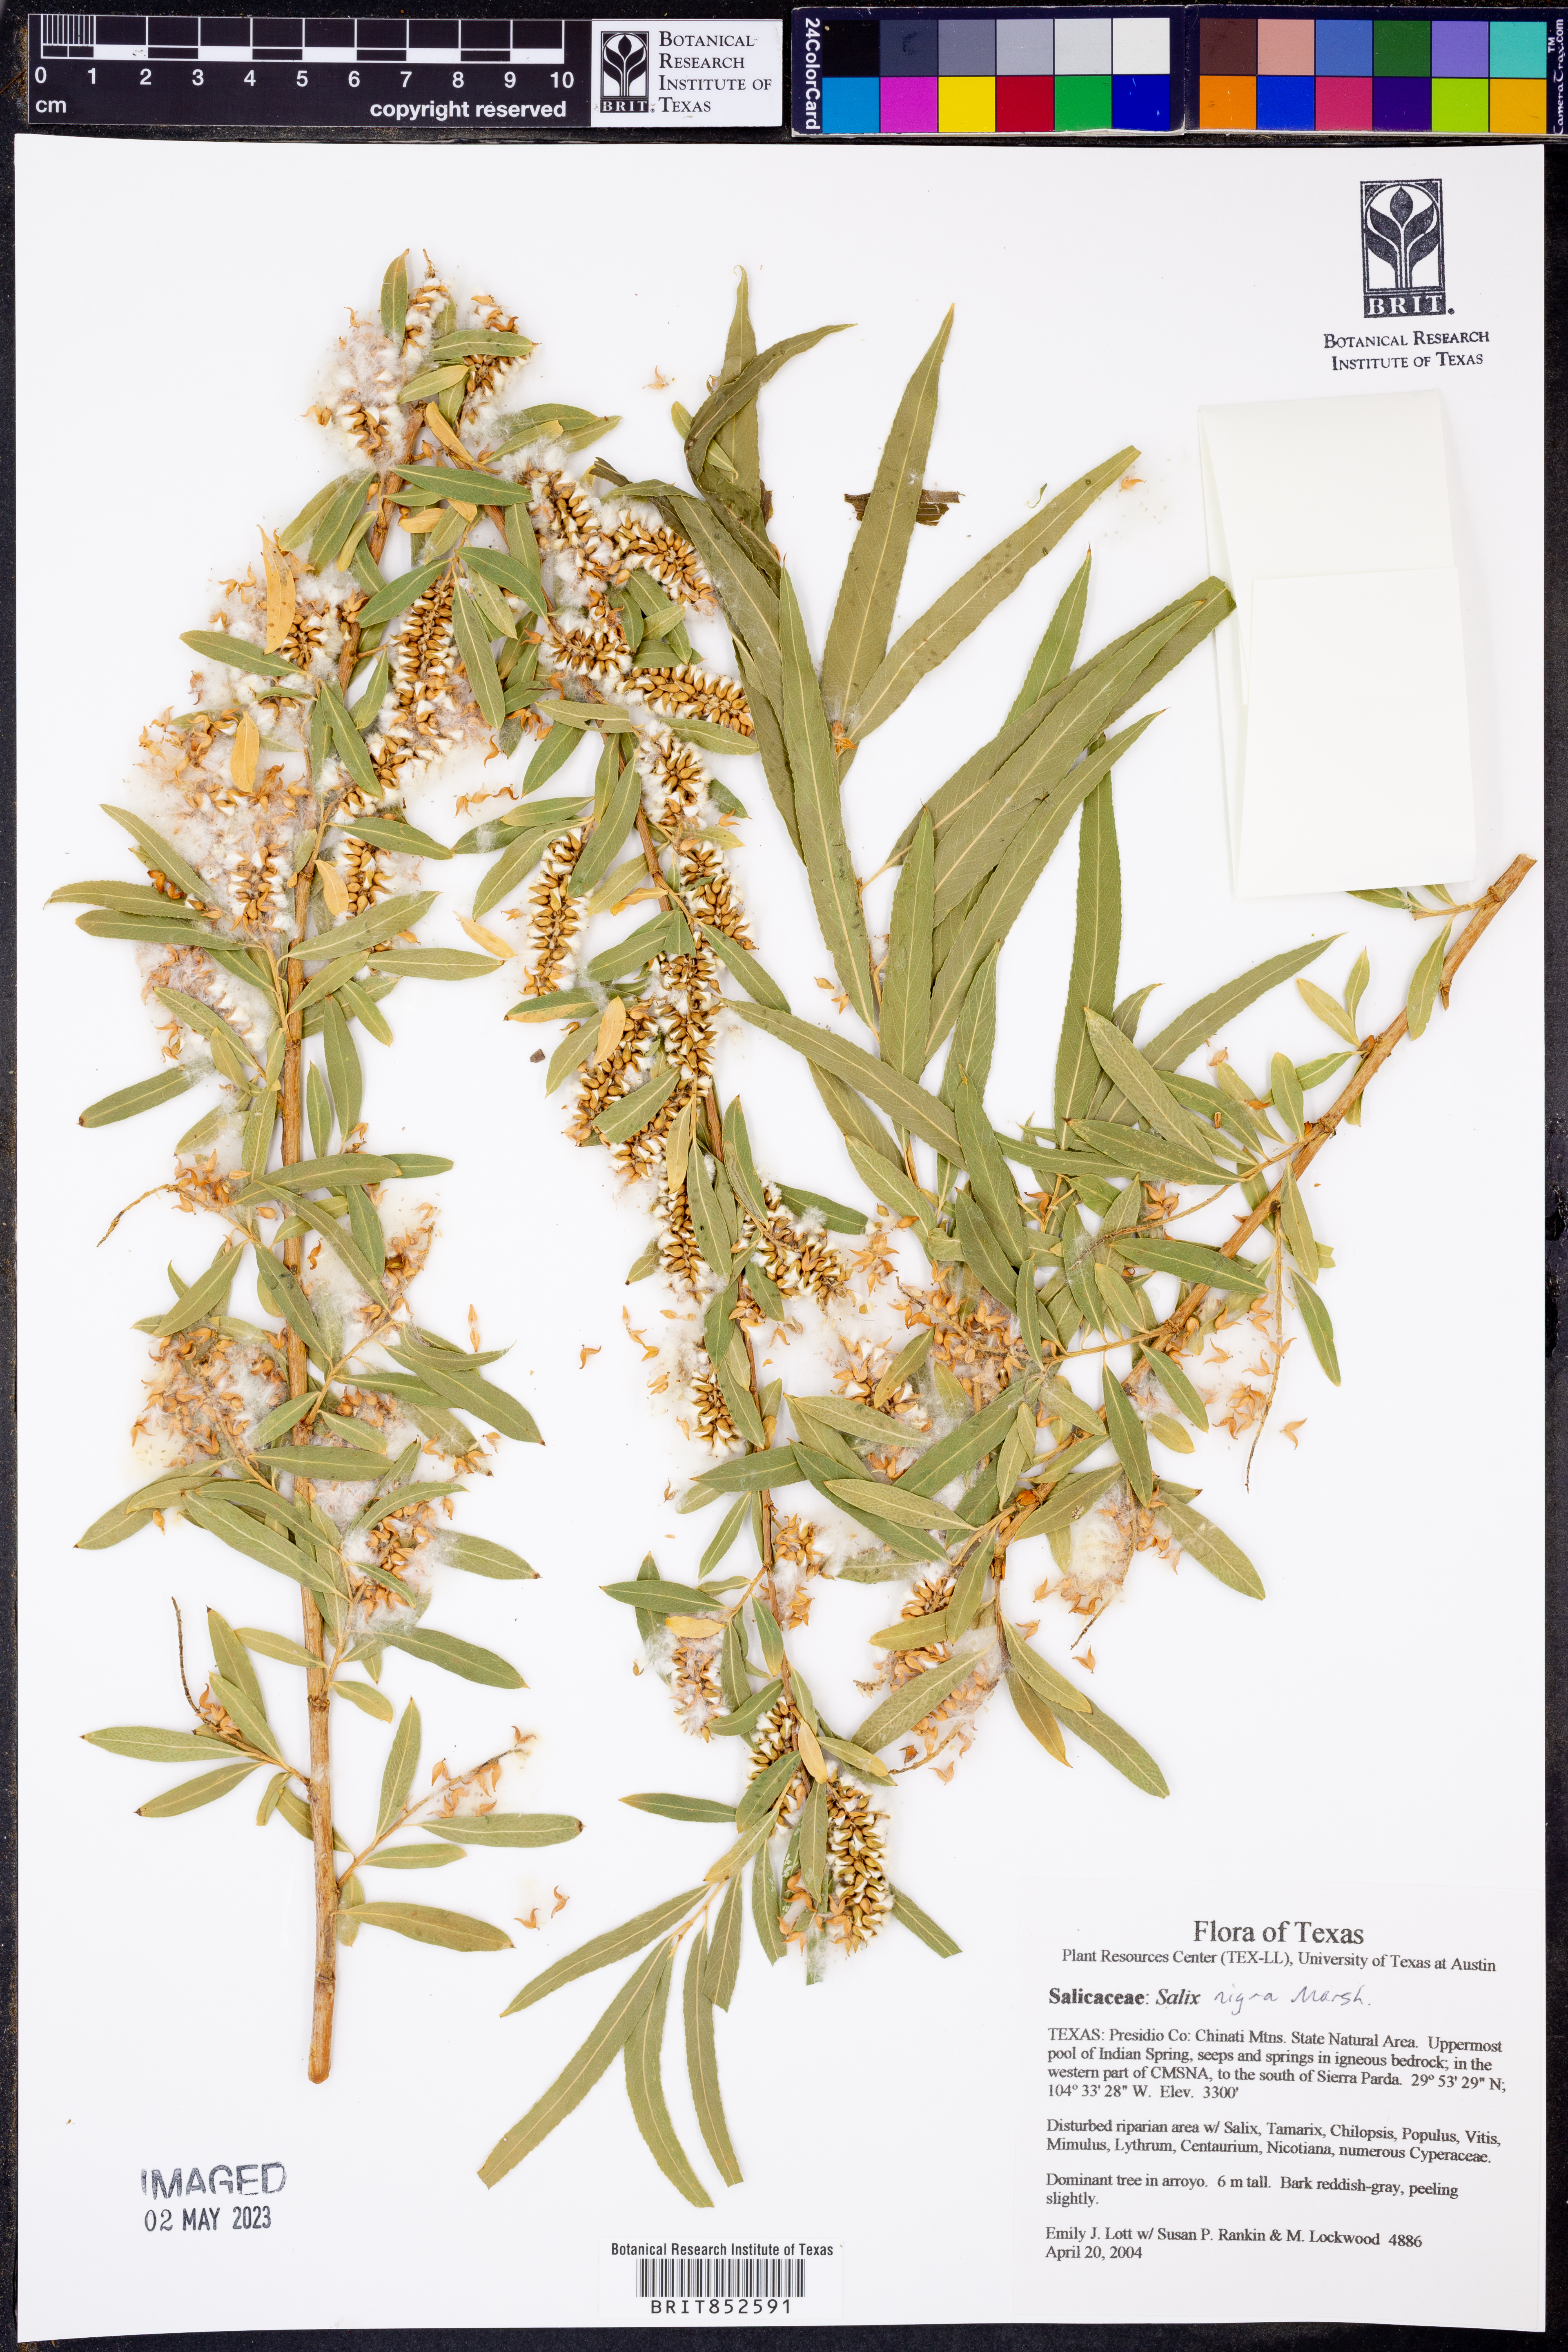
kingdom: Plantae
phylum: Tracheophyta
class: Magnoliopsida
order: Malpighiales
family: Salicaceae
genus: Salix
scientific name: Salix nigra
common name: Black willow
